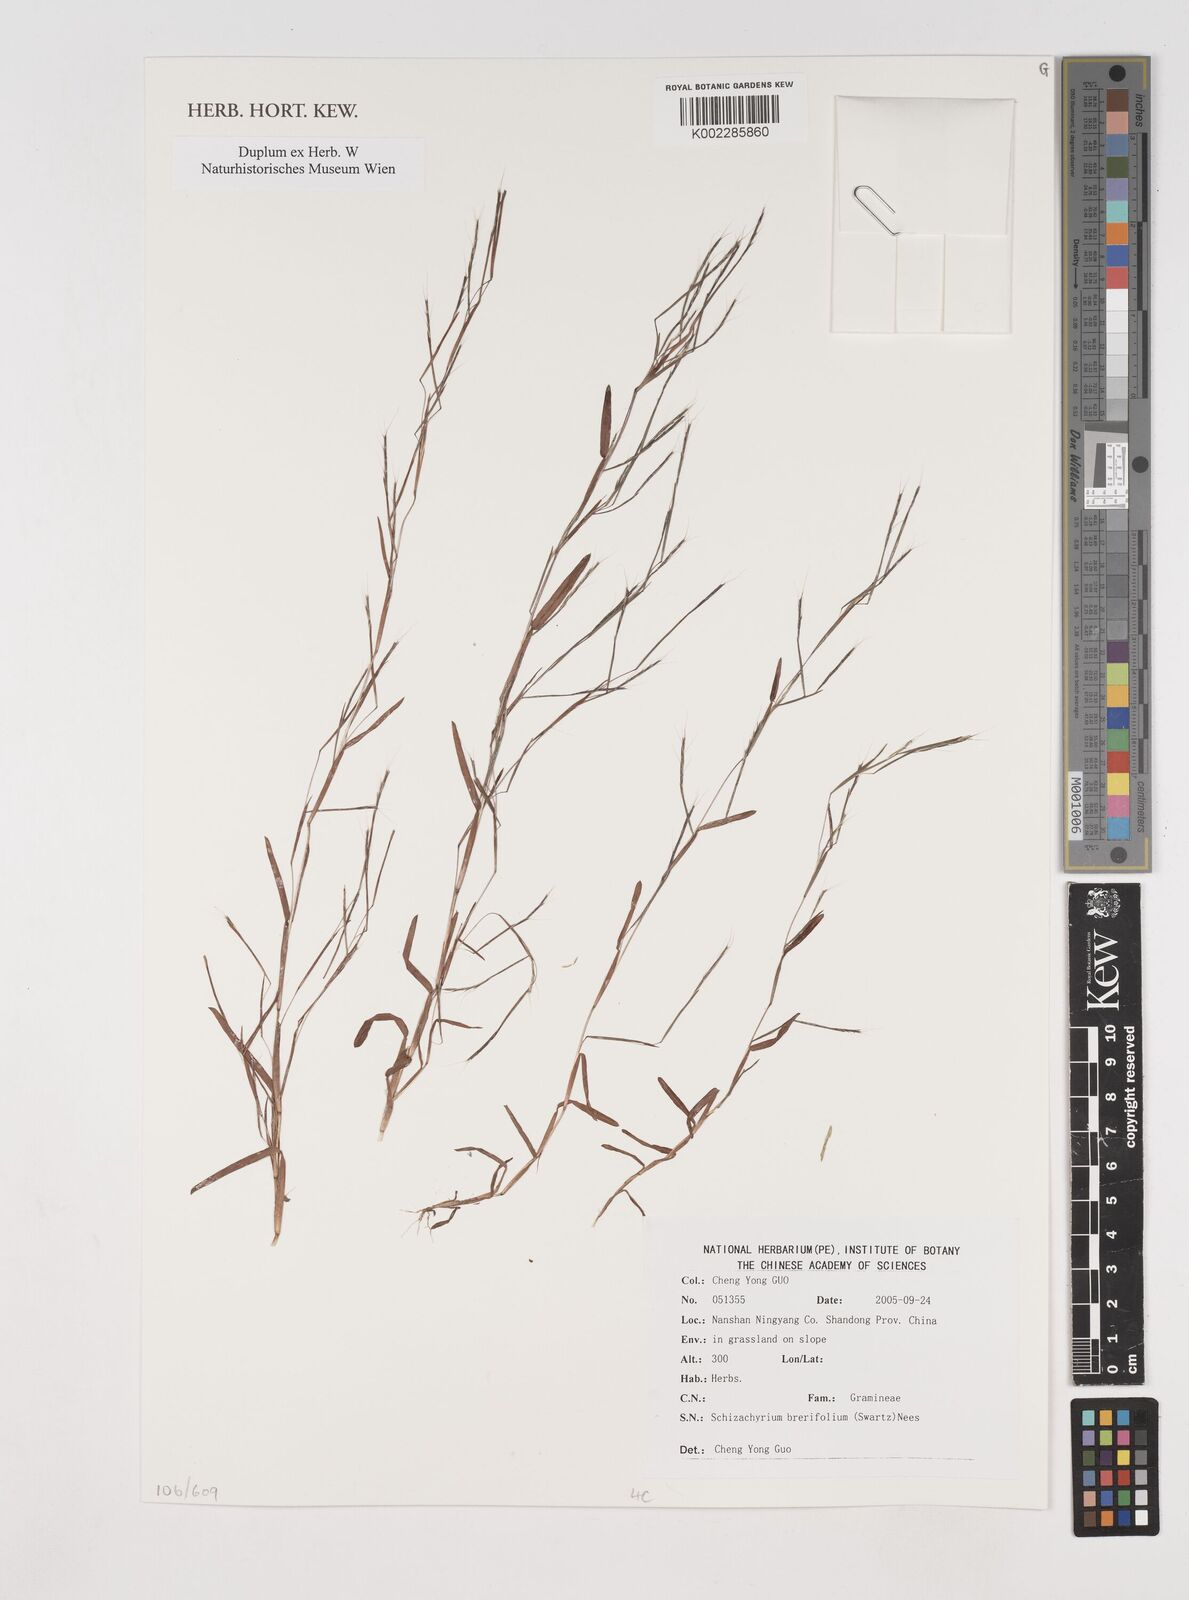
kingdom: Plantae
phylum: Tracheophyta
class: Liliopsida
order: Poales
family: Poaceae
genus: Schizachyrium
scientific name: Schizachyrium brevifolium
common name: Serillo dulce
